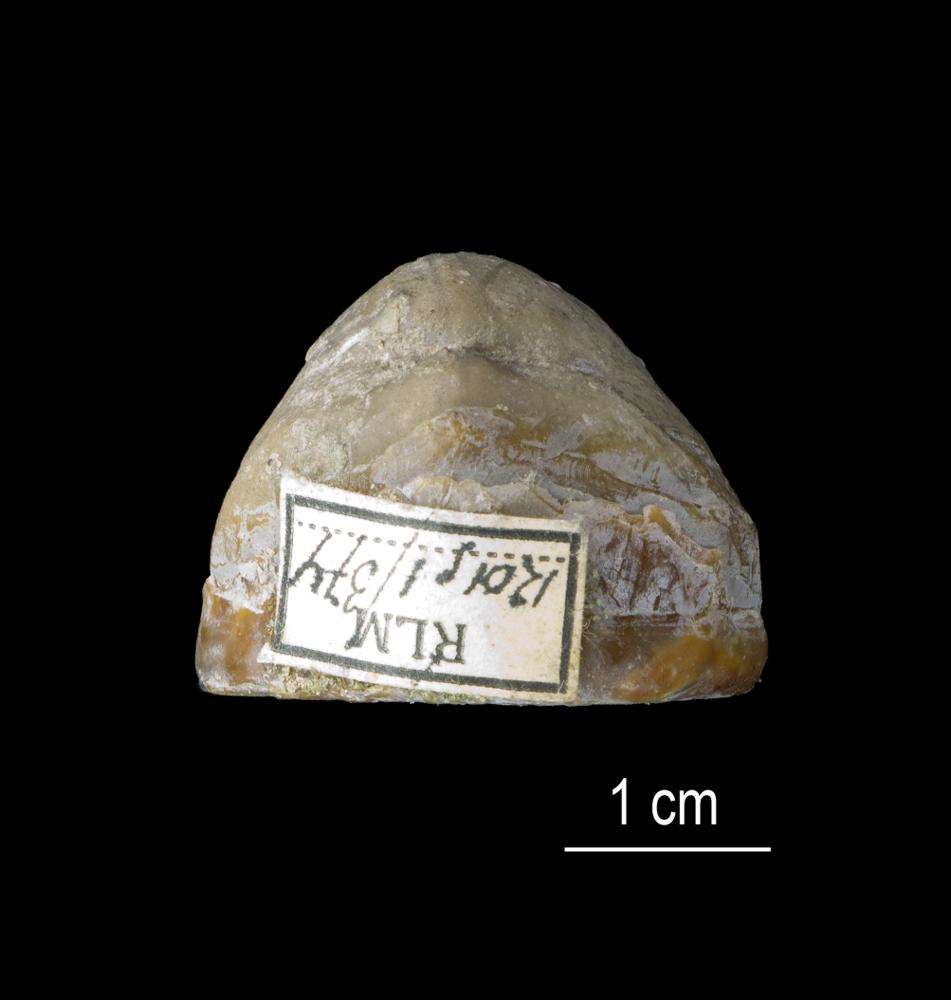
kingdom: Animalia
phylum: Brachiopoda
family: Kutorginidae
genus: Rustella
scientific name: Rustella
